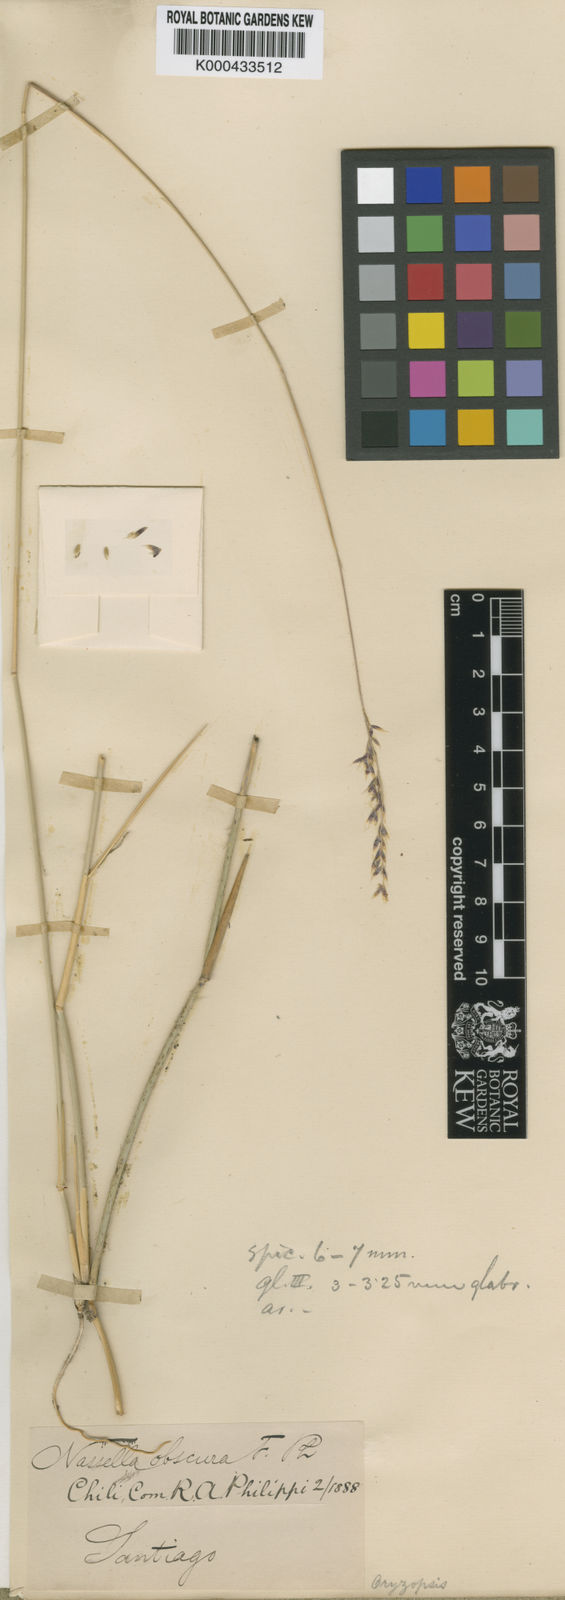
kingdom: Plantae
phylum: Tracheophyta
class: Liliopsida
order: Poales
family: Poaceae
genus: Nassella
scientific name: Nassella chilensis
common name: Chilean needlegrass
